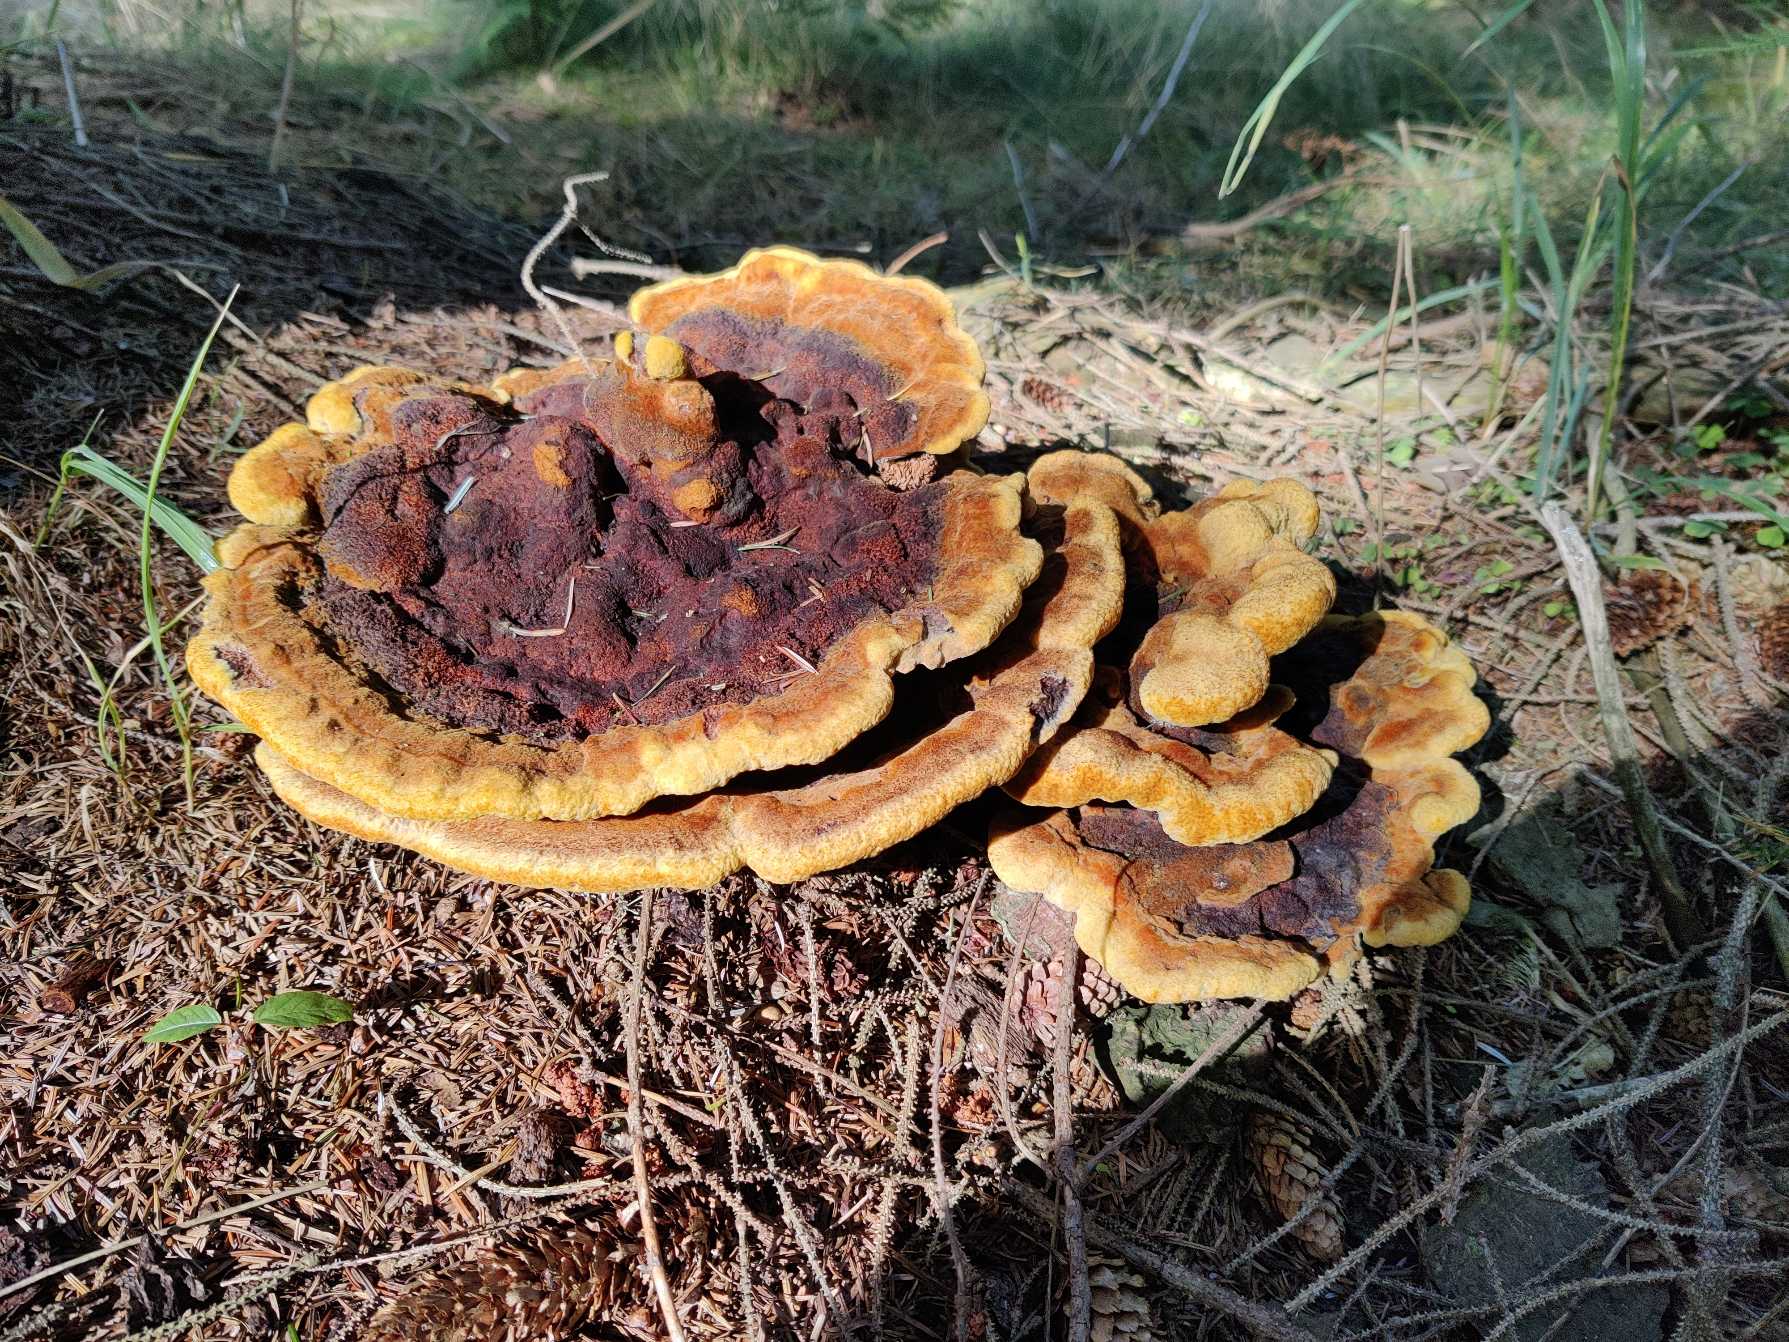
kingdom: Fungi
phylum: Basidiomycota
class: Agaricomycetes
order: Polyporales
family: Laetiporaceae
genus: Phaeolus
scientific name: Phaeolus schweinitzii
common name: Brunporesvamp
